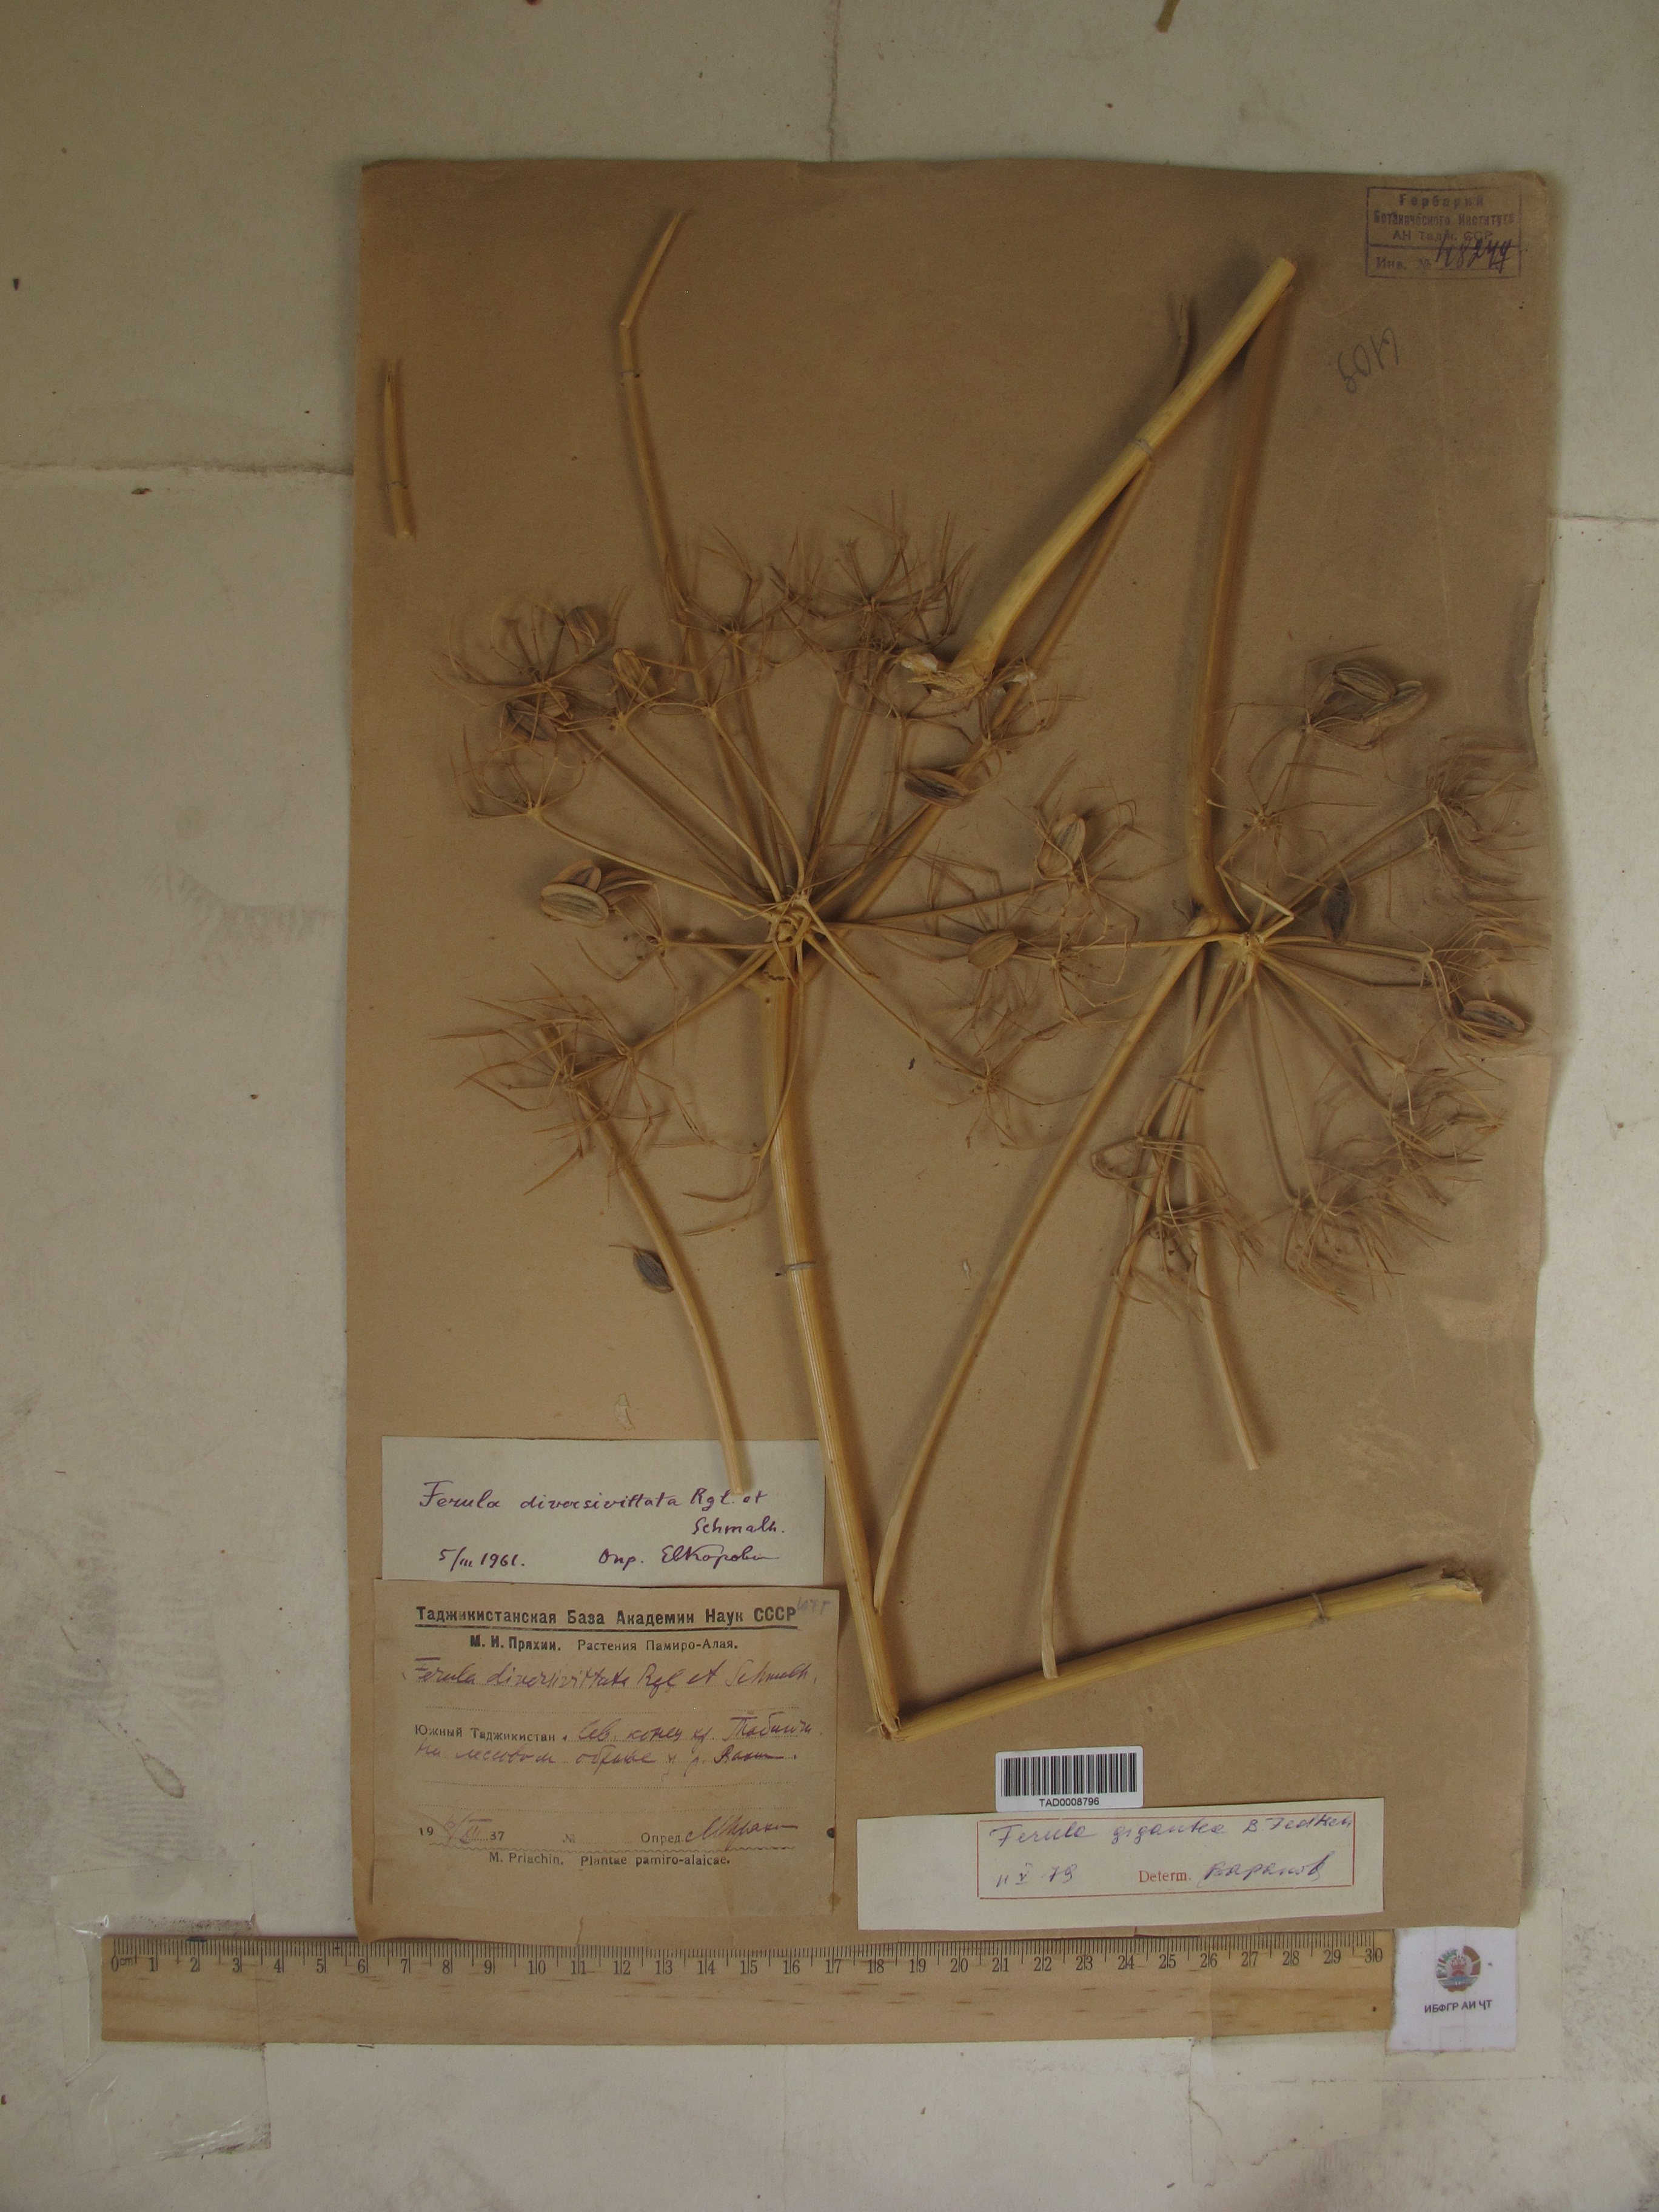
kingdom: Plantae
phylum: Tracheophyta
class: Magnoliopsida
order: Apiales
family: Apiaceae
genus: Ferula
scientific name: Ferula gigantea
